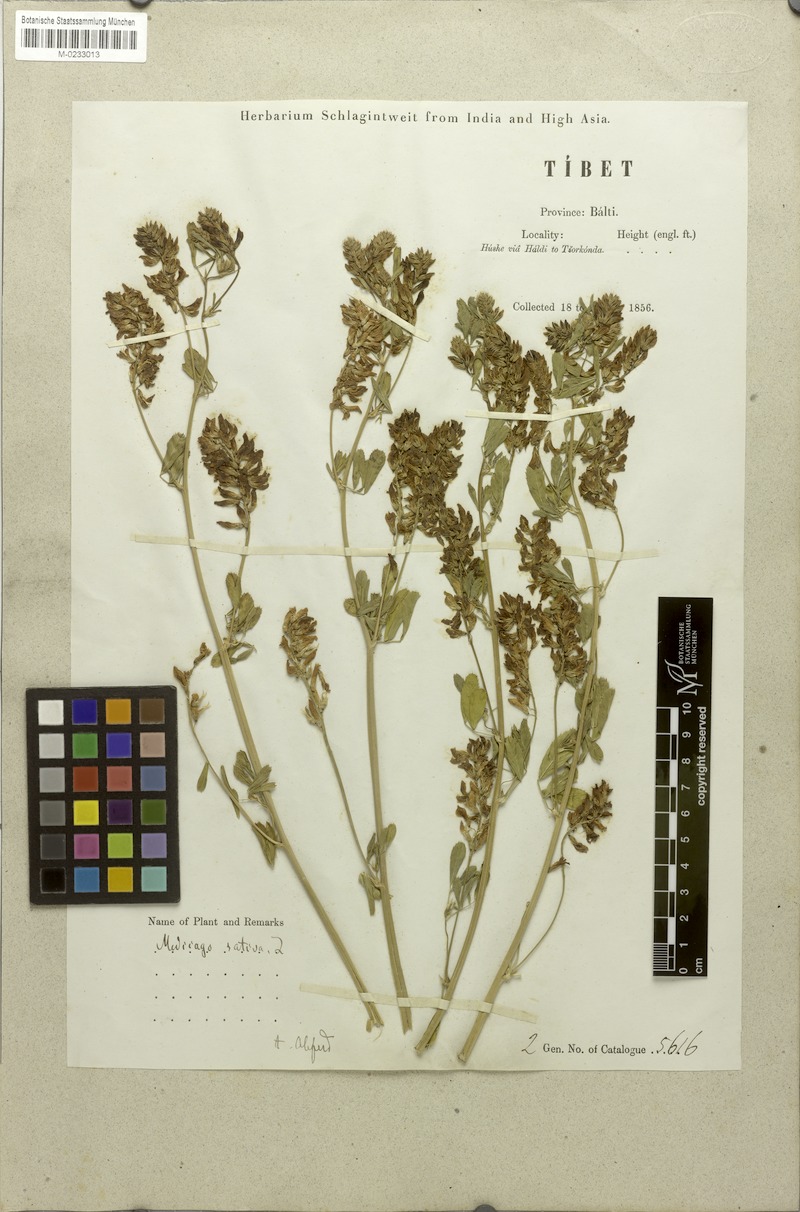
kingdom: Plantae
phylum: Tracheophyta
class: Magnoliopsida
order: Fabales
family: Fabaceae
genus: Medicago
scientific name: Medicago sativa
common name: Alfalfa
